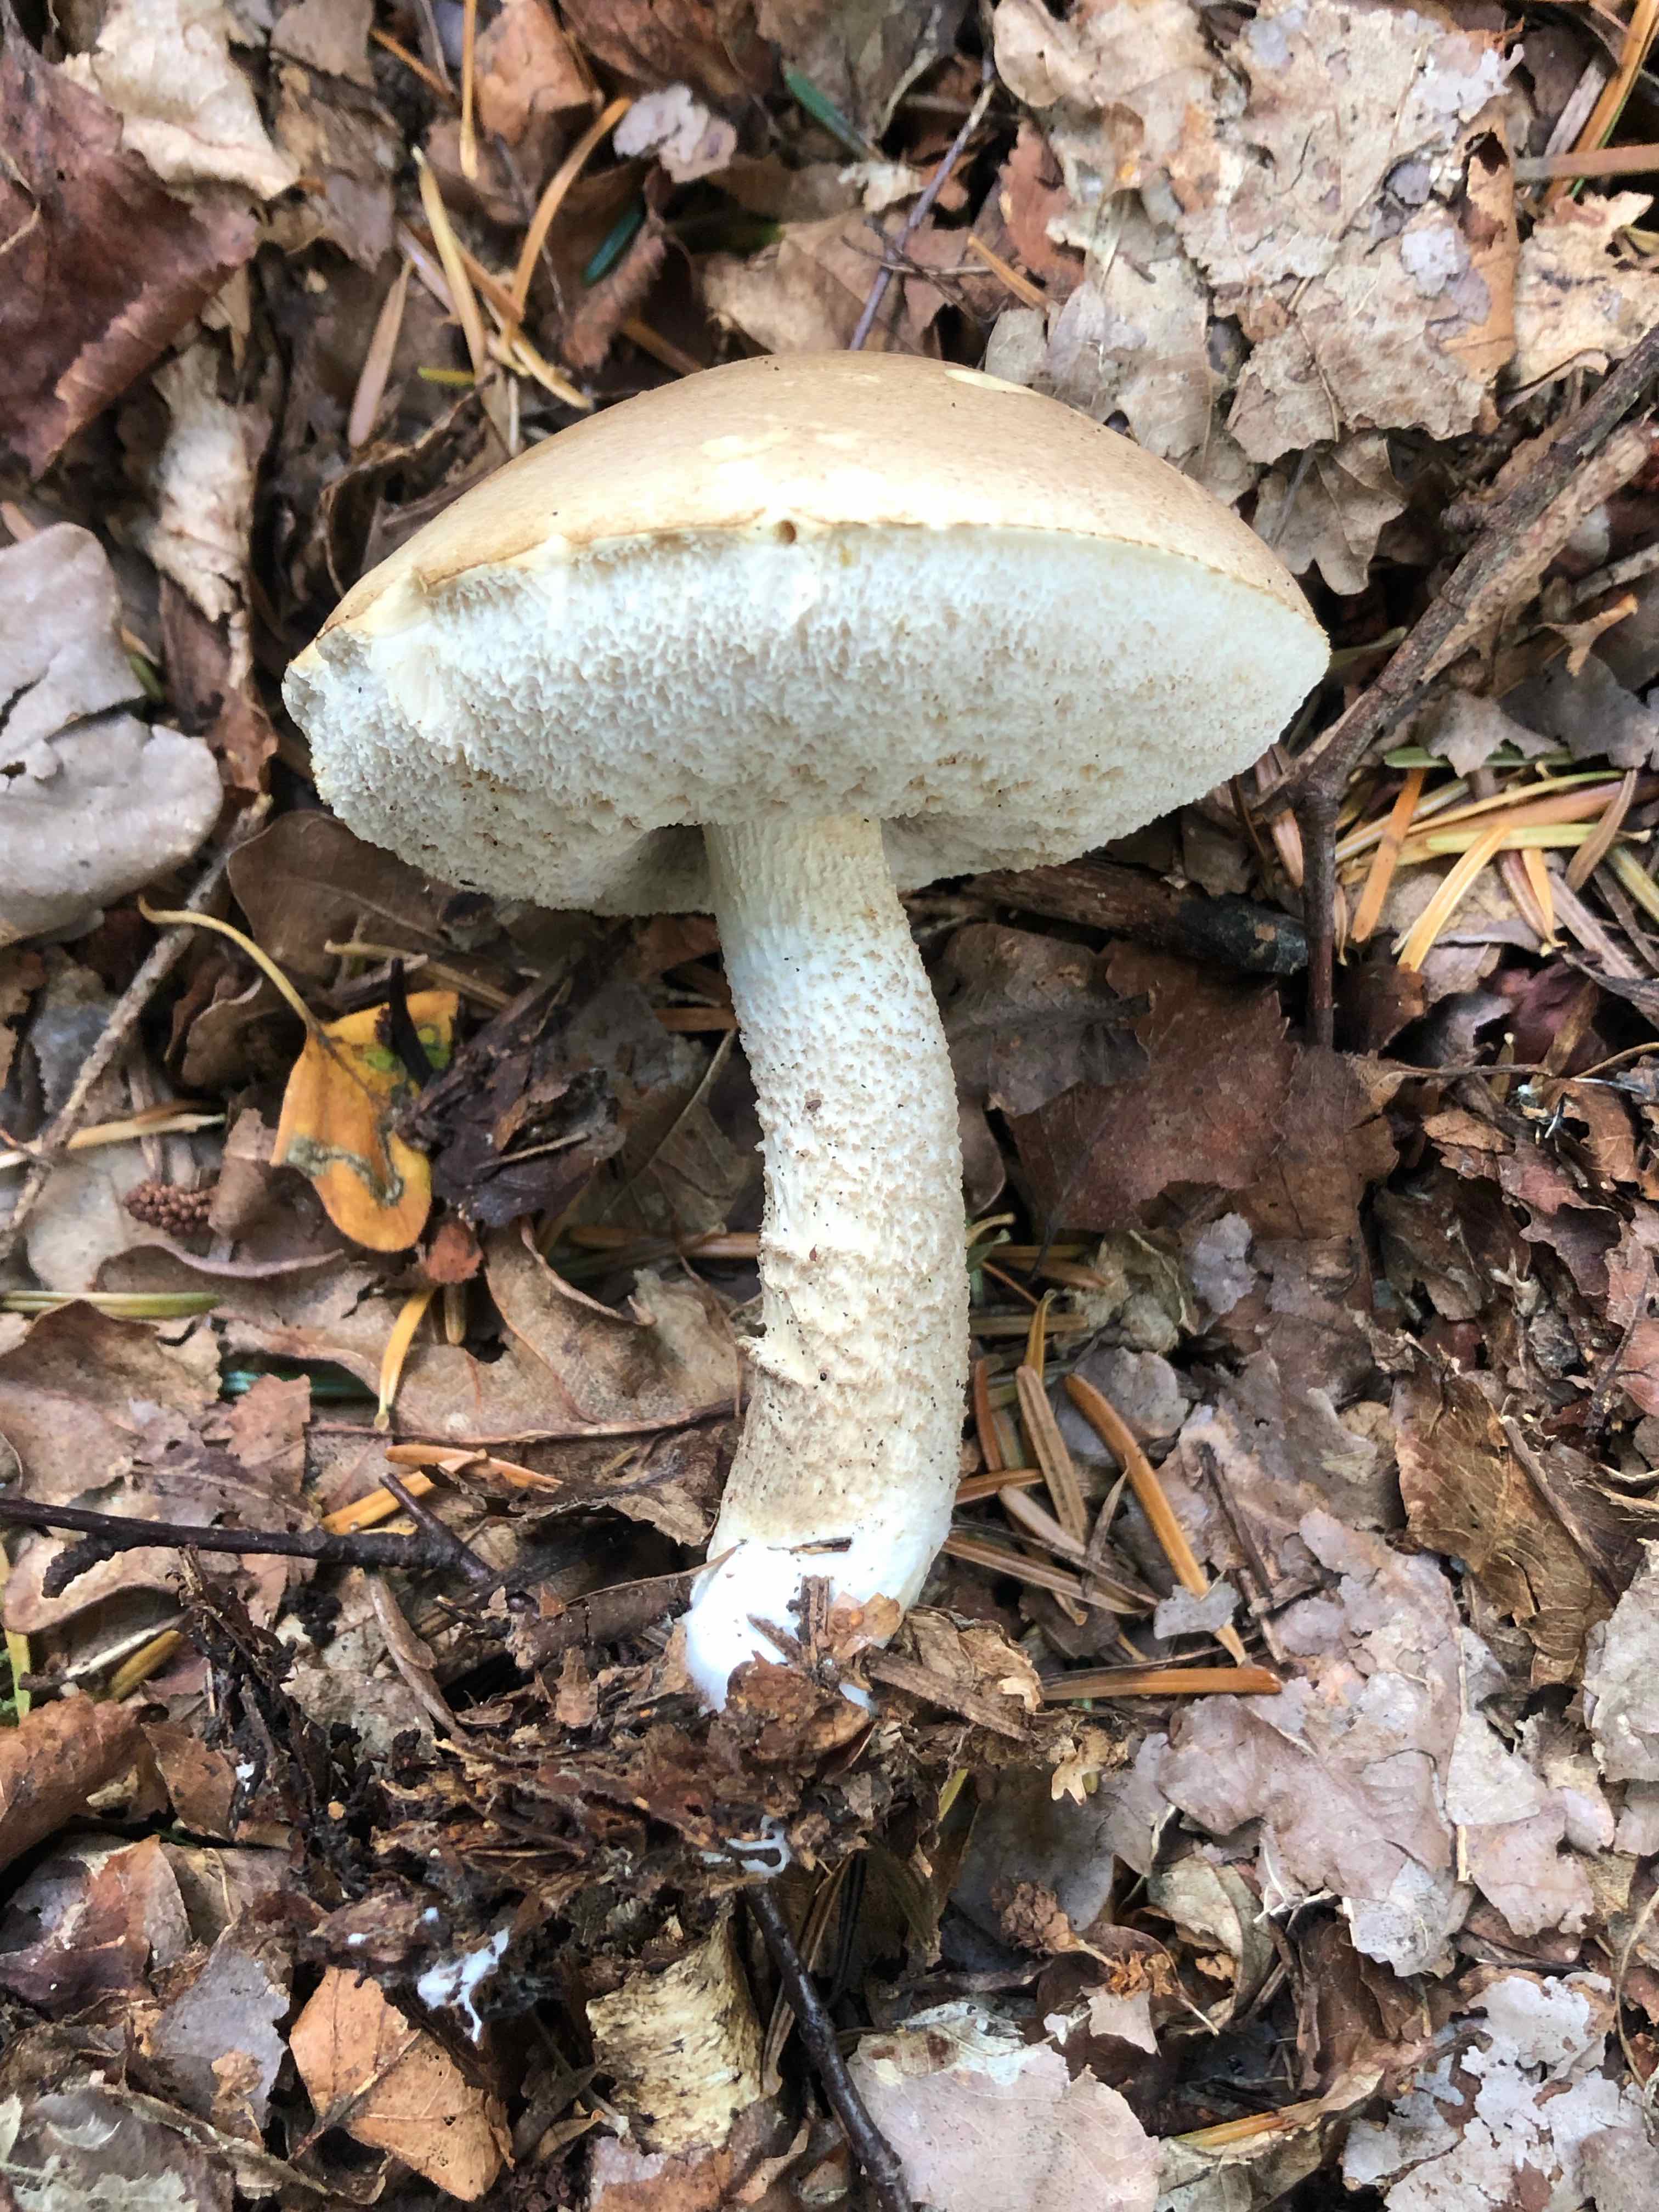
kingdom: Fungi
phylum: Basidiomycota
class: Agaricomycetes
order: Boletales
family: Boletaceae
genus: Leccinum
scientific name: Leccinum
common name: skælrørhat
